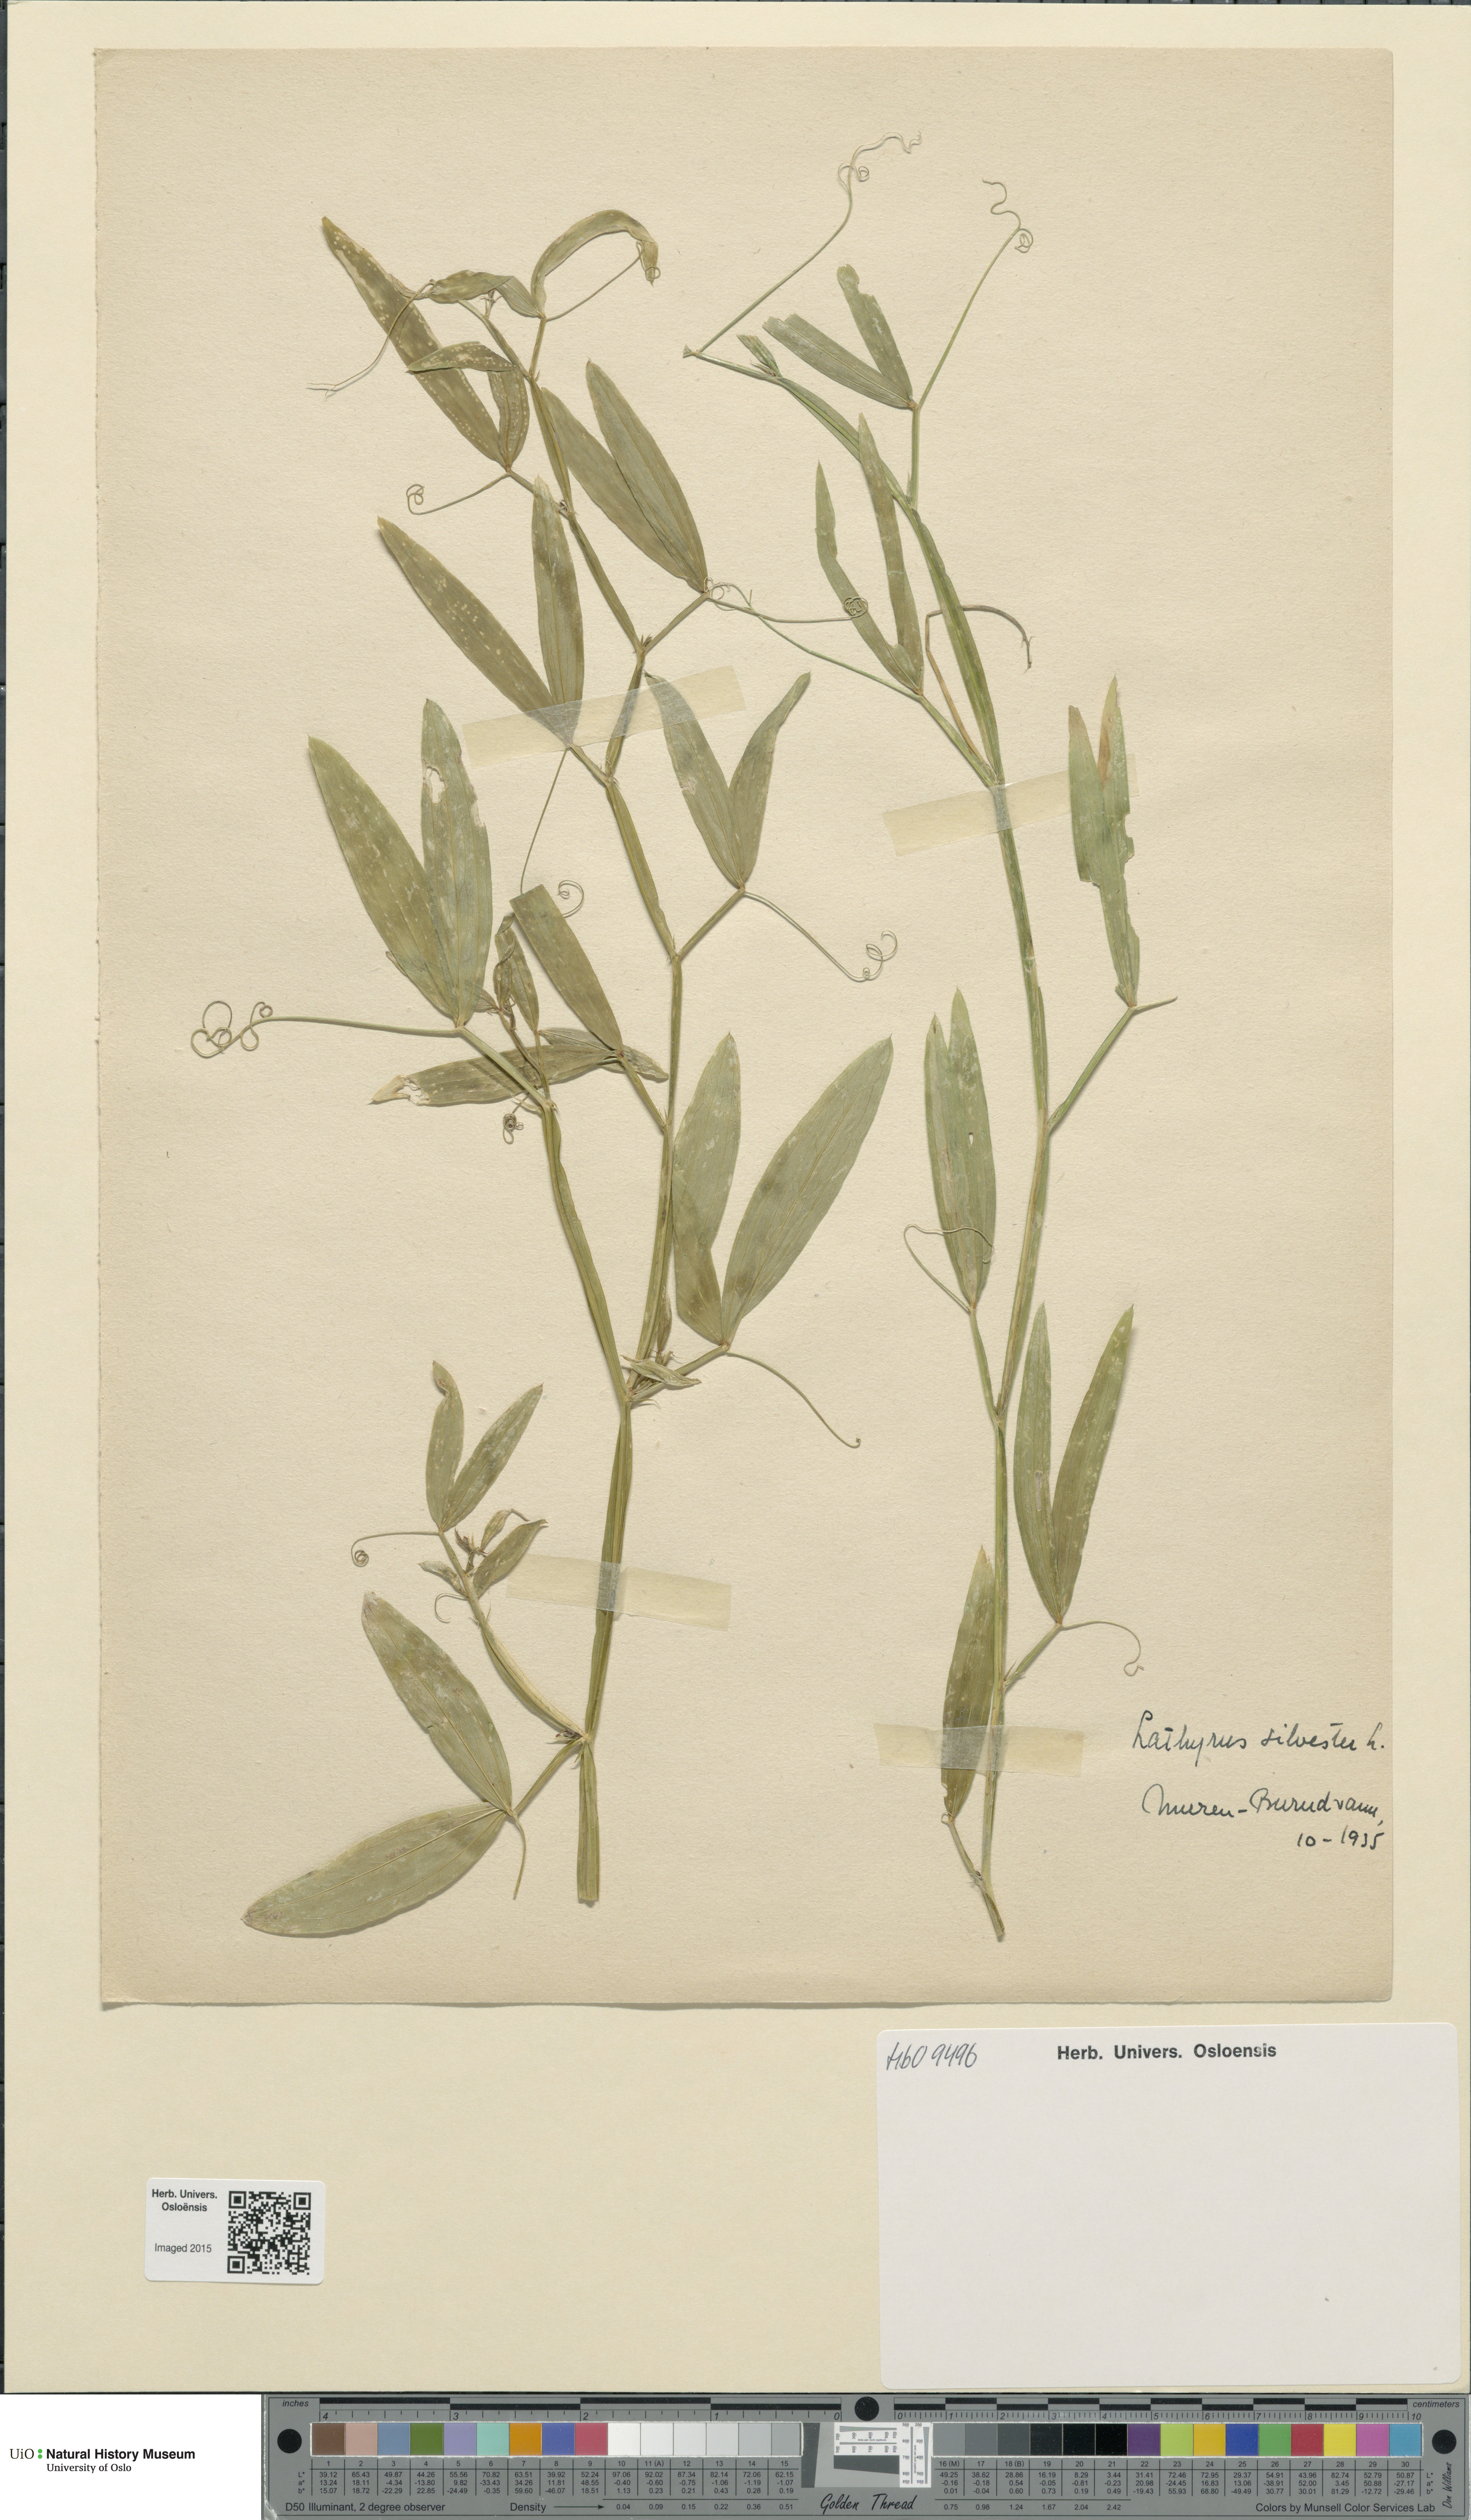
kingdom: Plantae
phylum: Tracheophyta
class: Magnoliopsida
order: Fabales
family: Fabaceae
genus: Lathyrus
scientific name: Lathyrus sylvestris
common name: Flat pea
